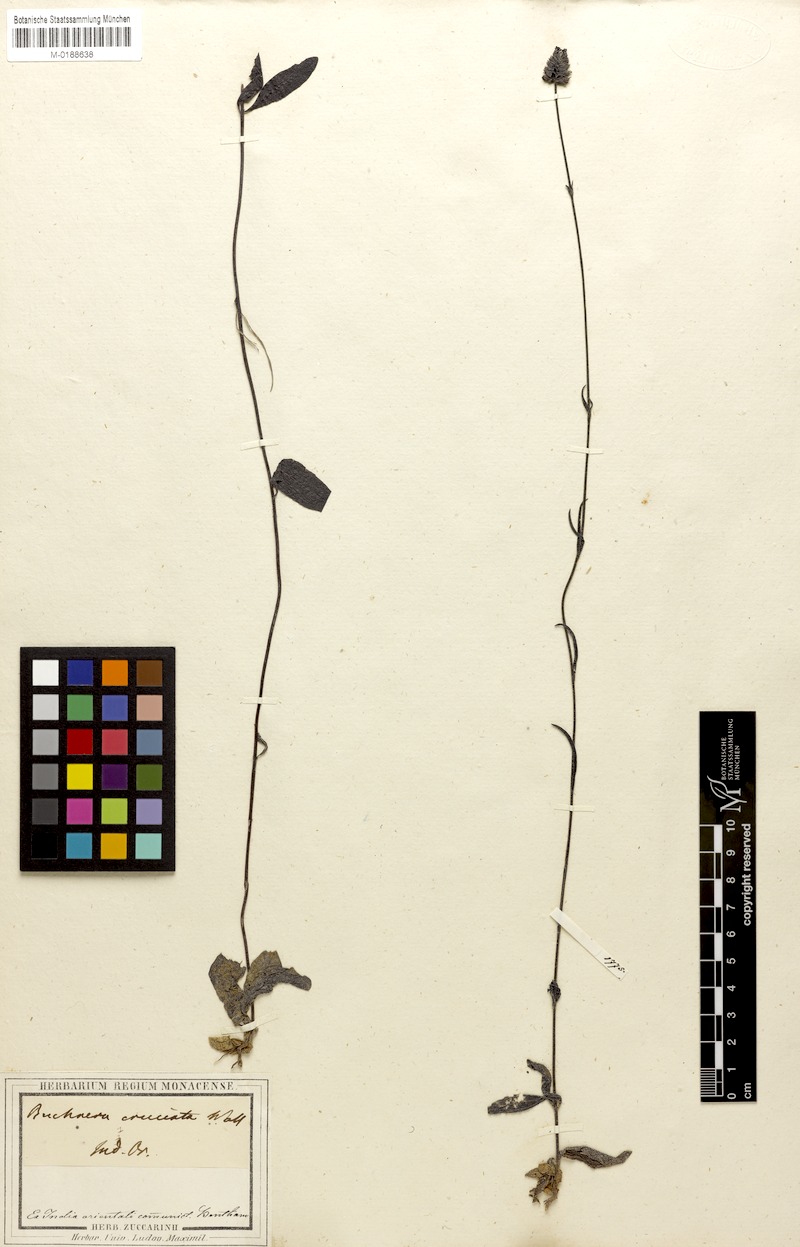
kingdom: Plantae
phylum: Tracheophyta
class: Magnoliopsida
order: Lamiales
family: Orobanchaceae
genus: Buchnera
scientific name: Buchnera cruciata
